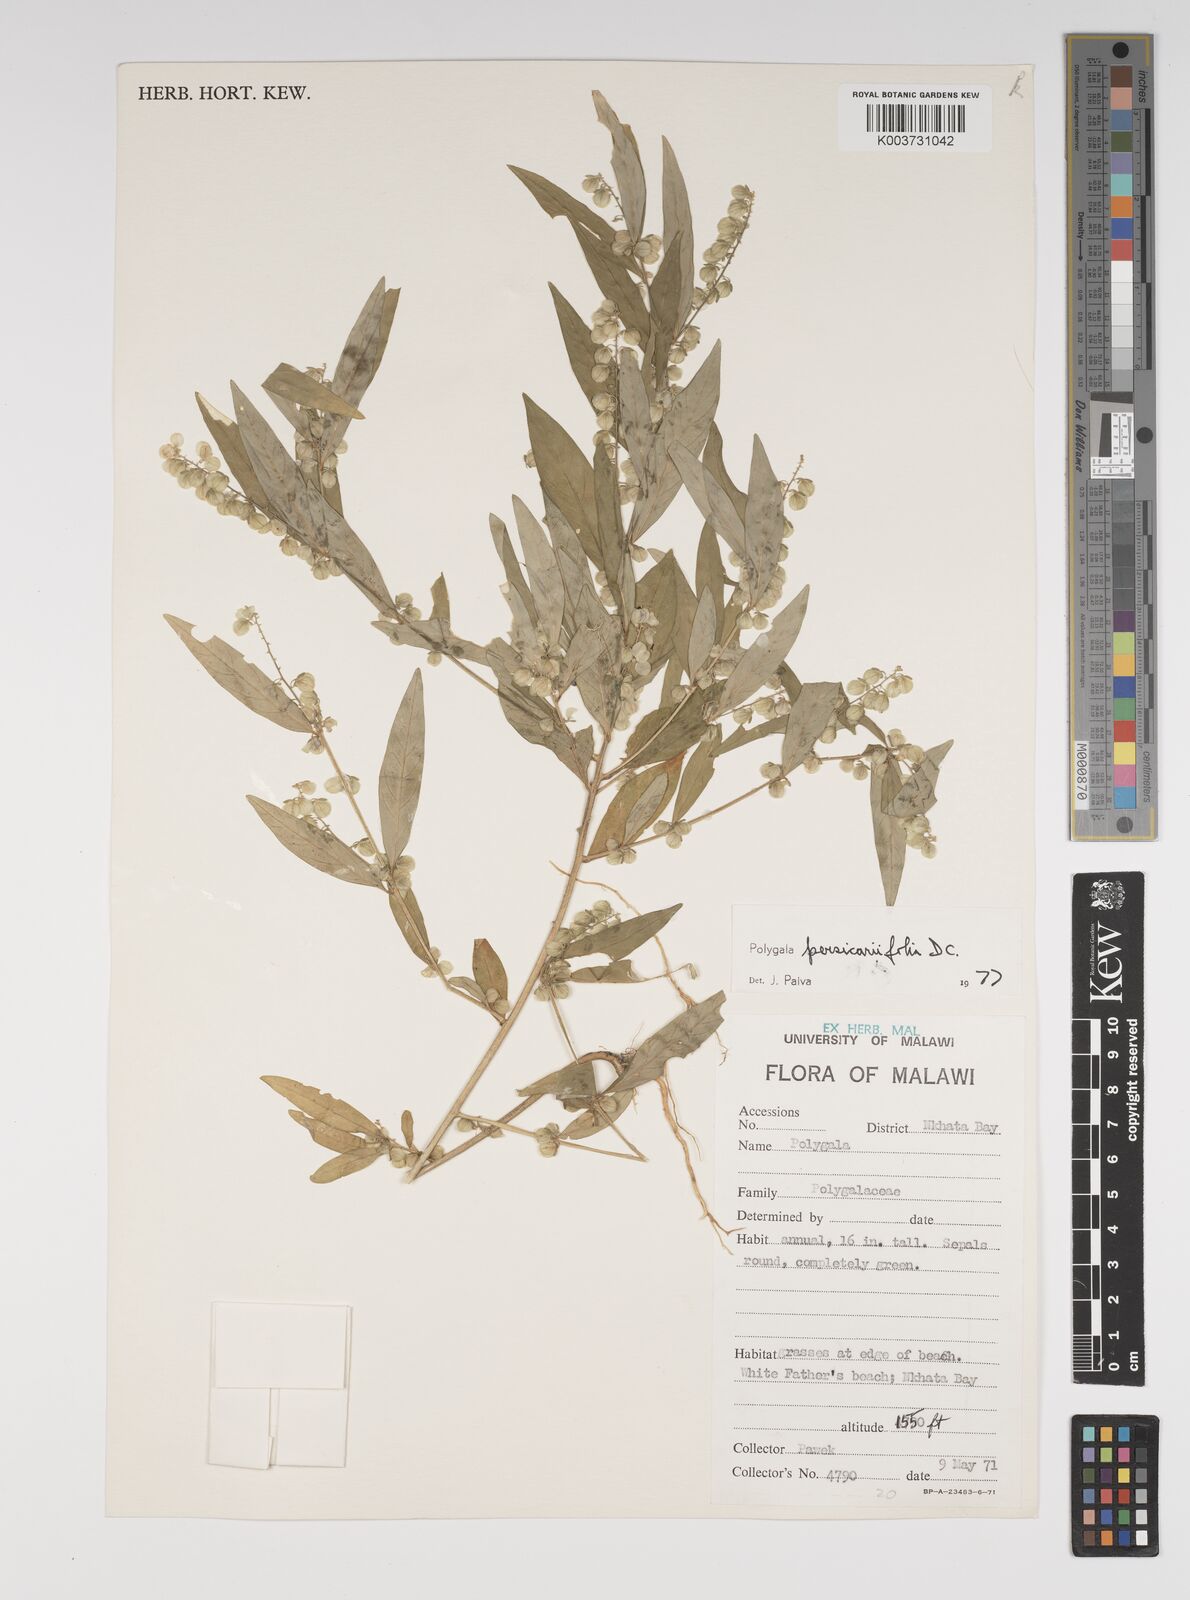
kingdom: Plantae
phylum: Tracheophyta
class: Magnoliopsida
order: Fabales
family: Polygalaceae
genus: Polygala
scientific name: Polygala persicariifolia
